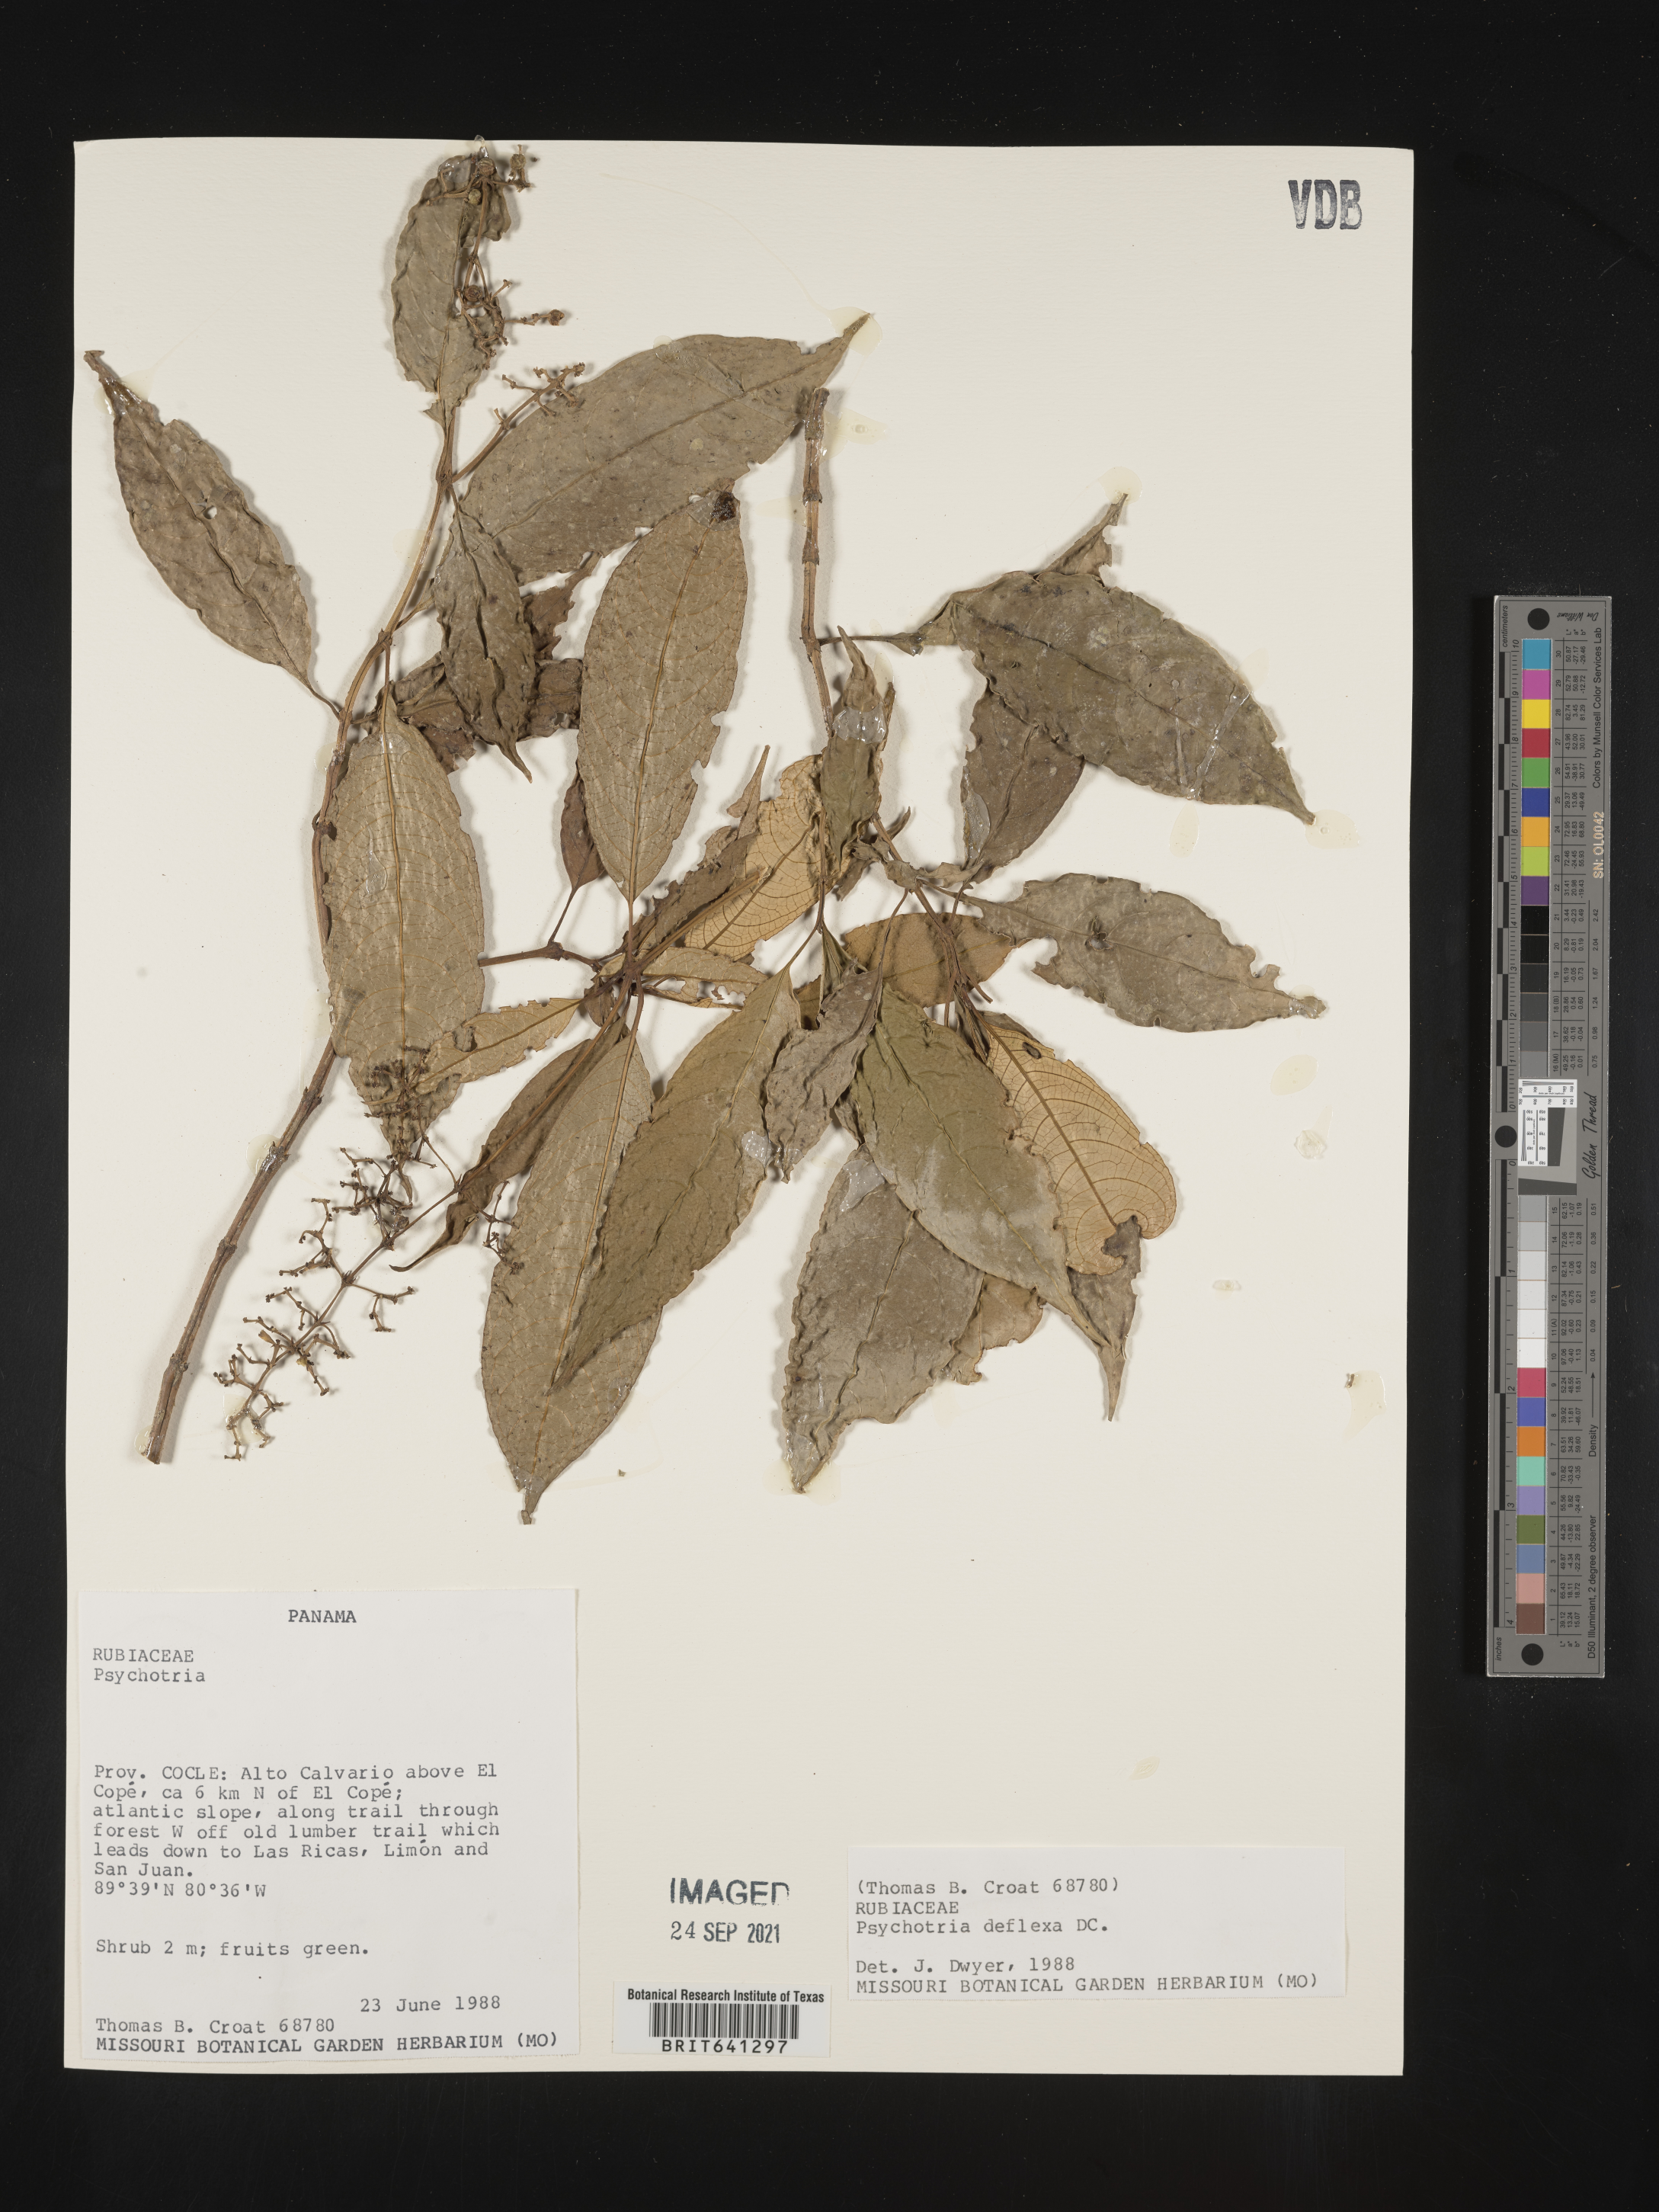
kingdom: Plantae
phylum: Tracheophyta
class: Magnoliopsida
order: Gentianales
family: Rubiaceae
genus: Psychotria
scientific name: Psychotria
